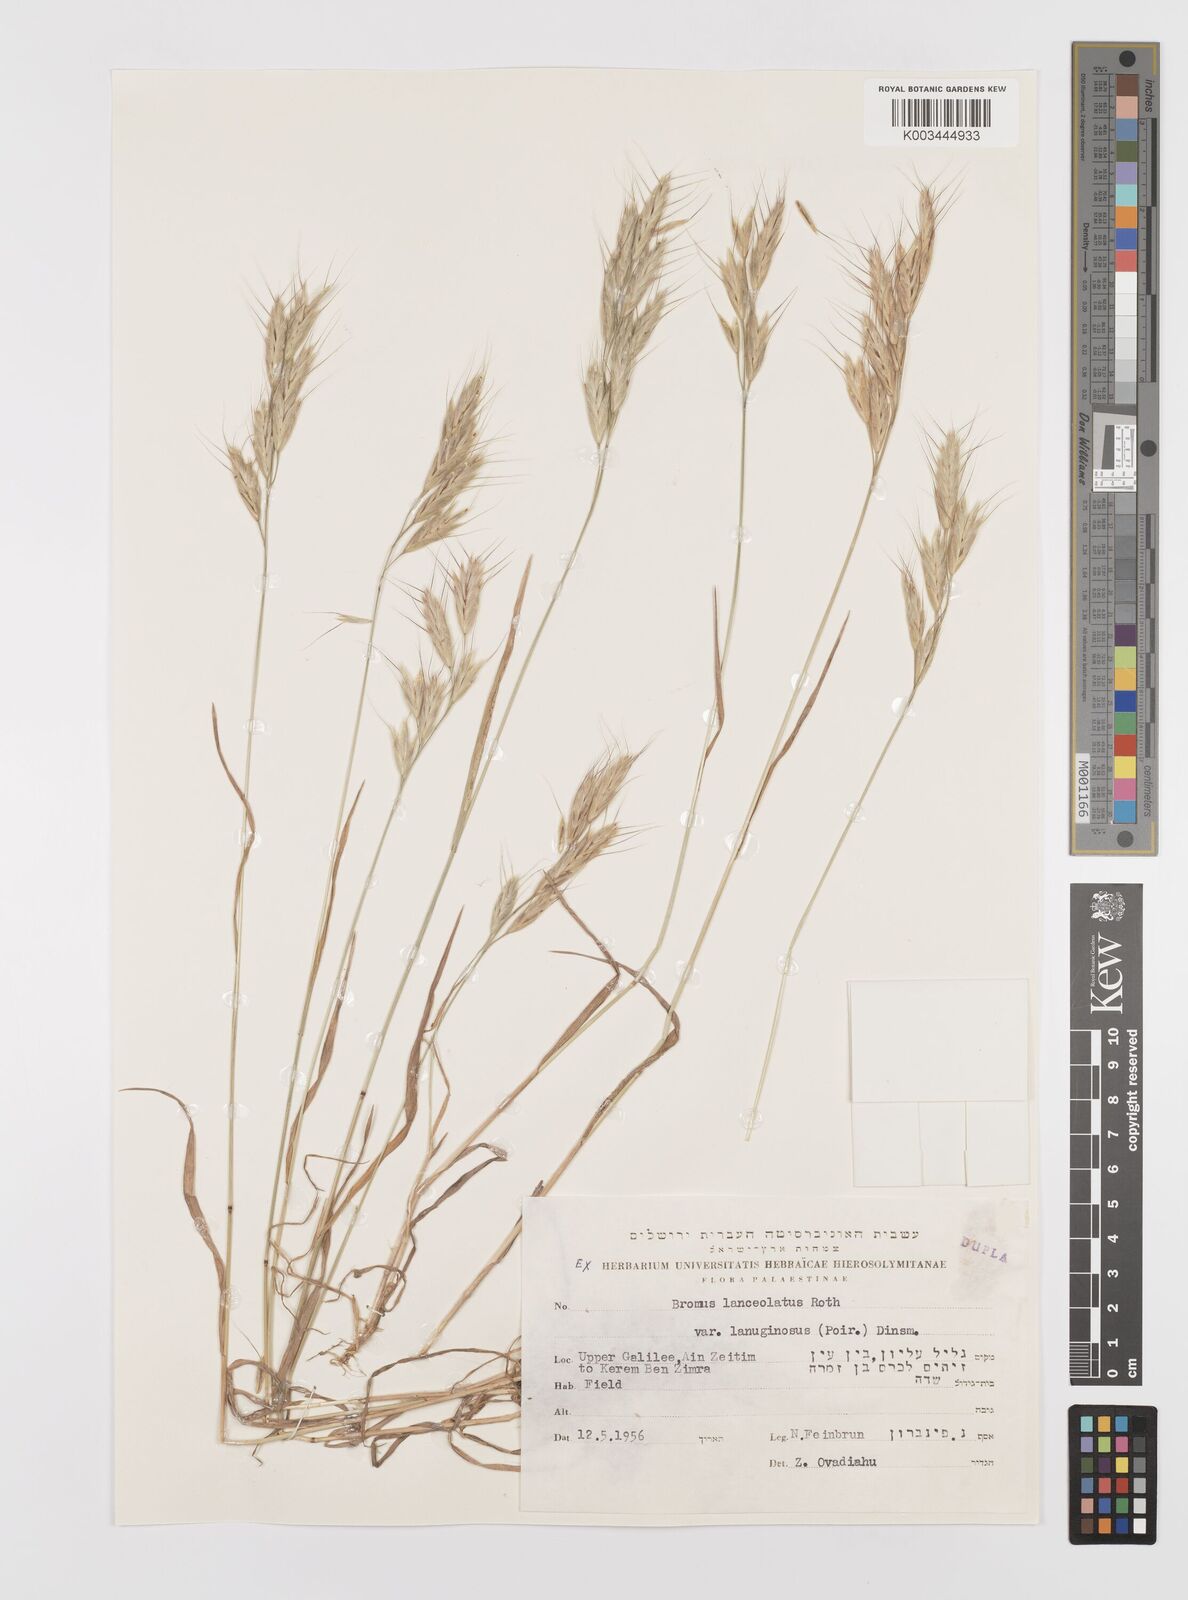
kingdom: Plantae
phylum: Tracheophyta
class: Liliopsida
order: Poales
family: Poaceae
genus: Bromus
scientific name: Bromus lanceolatus
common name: Mediterranean brome
